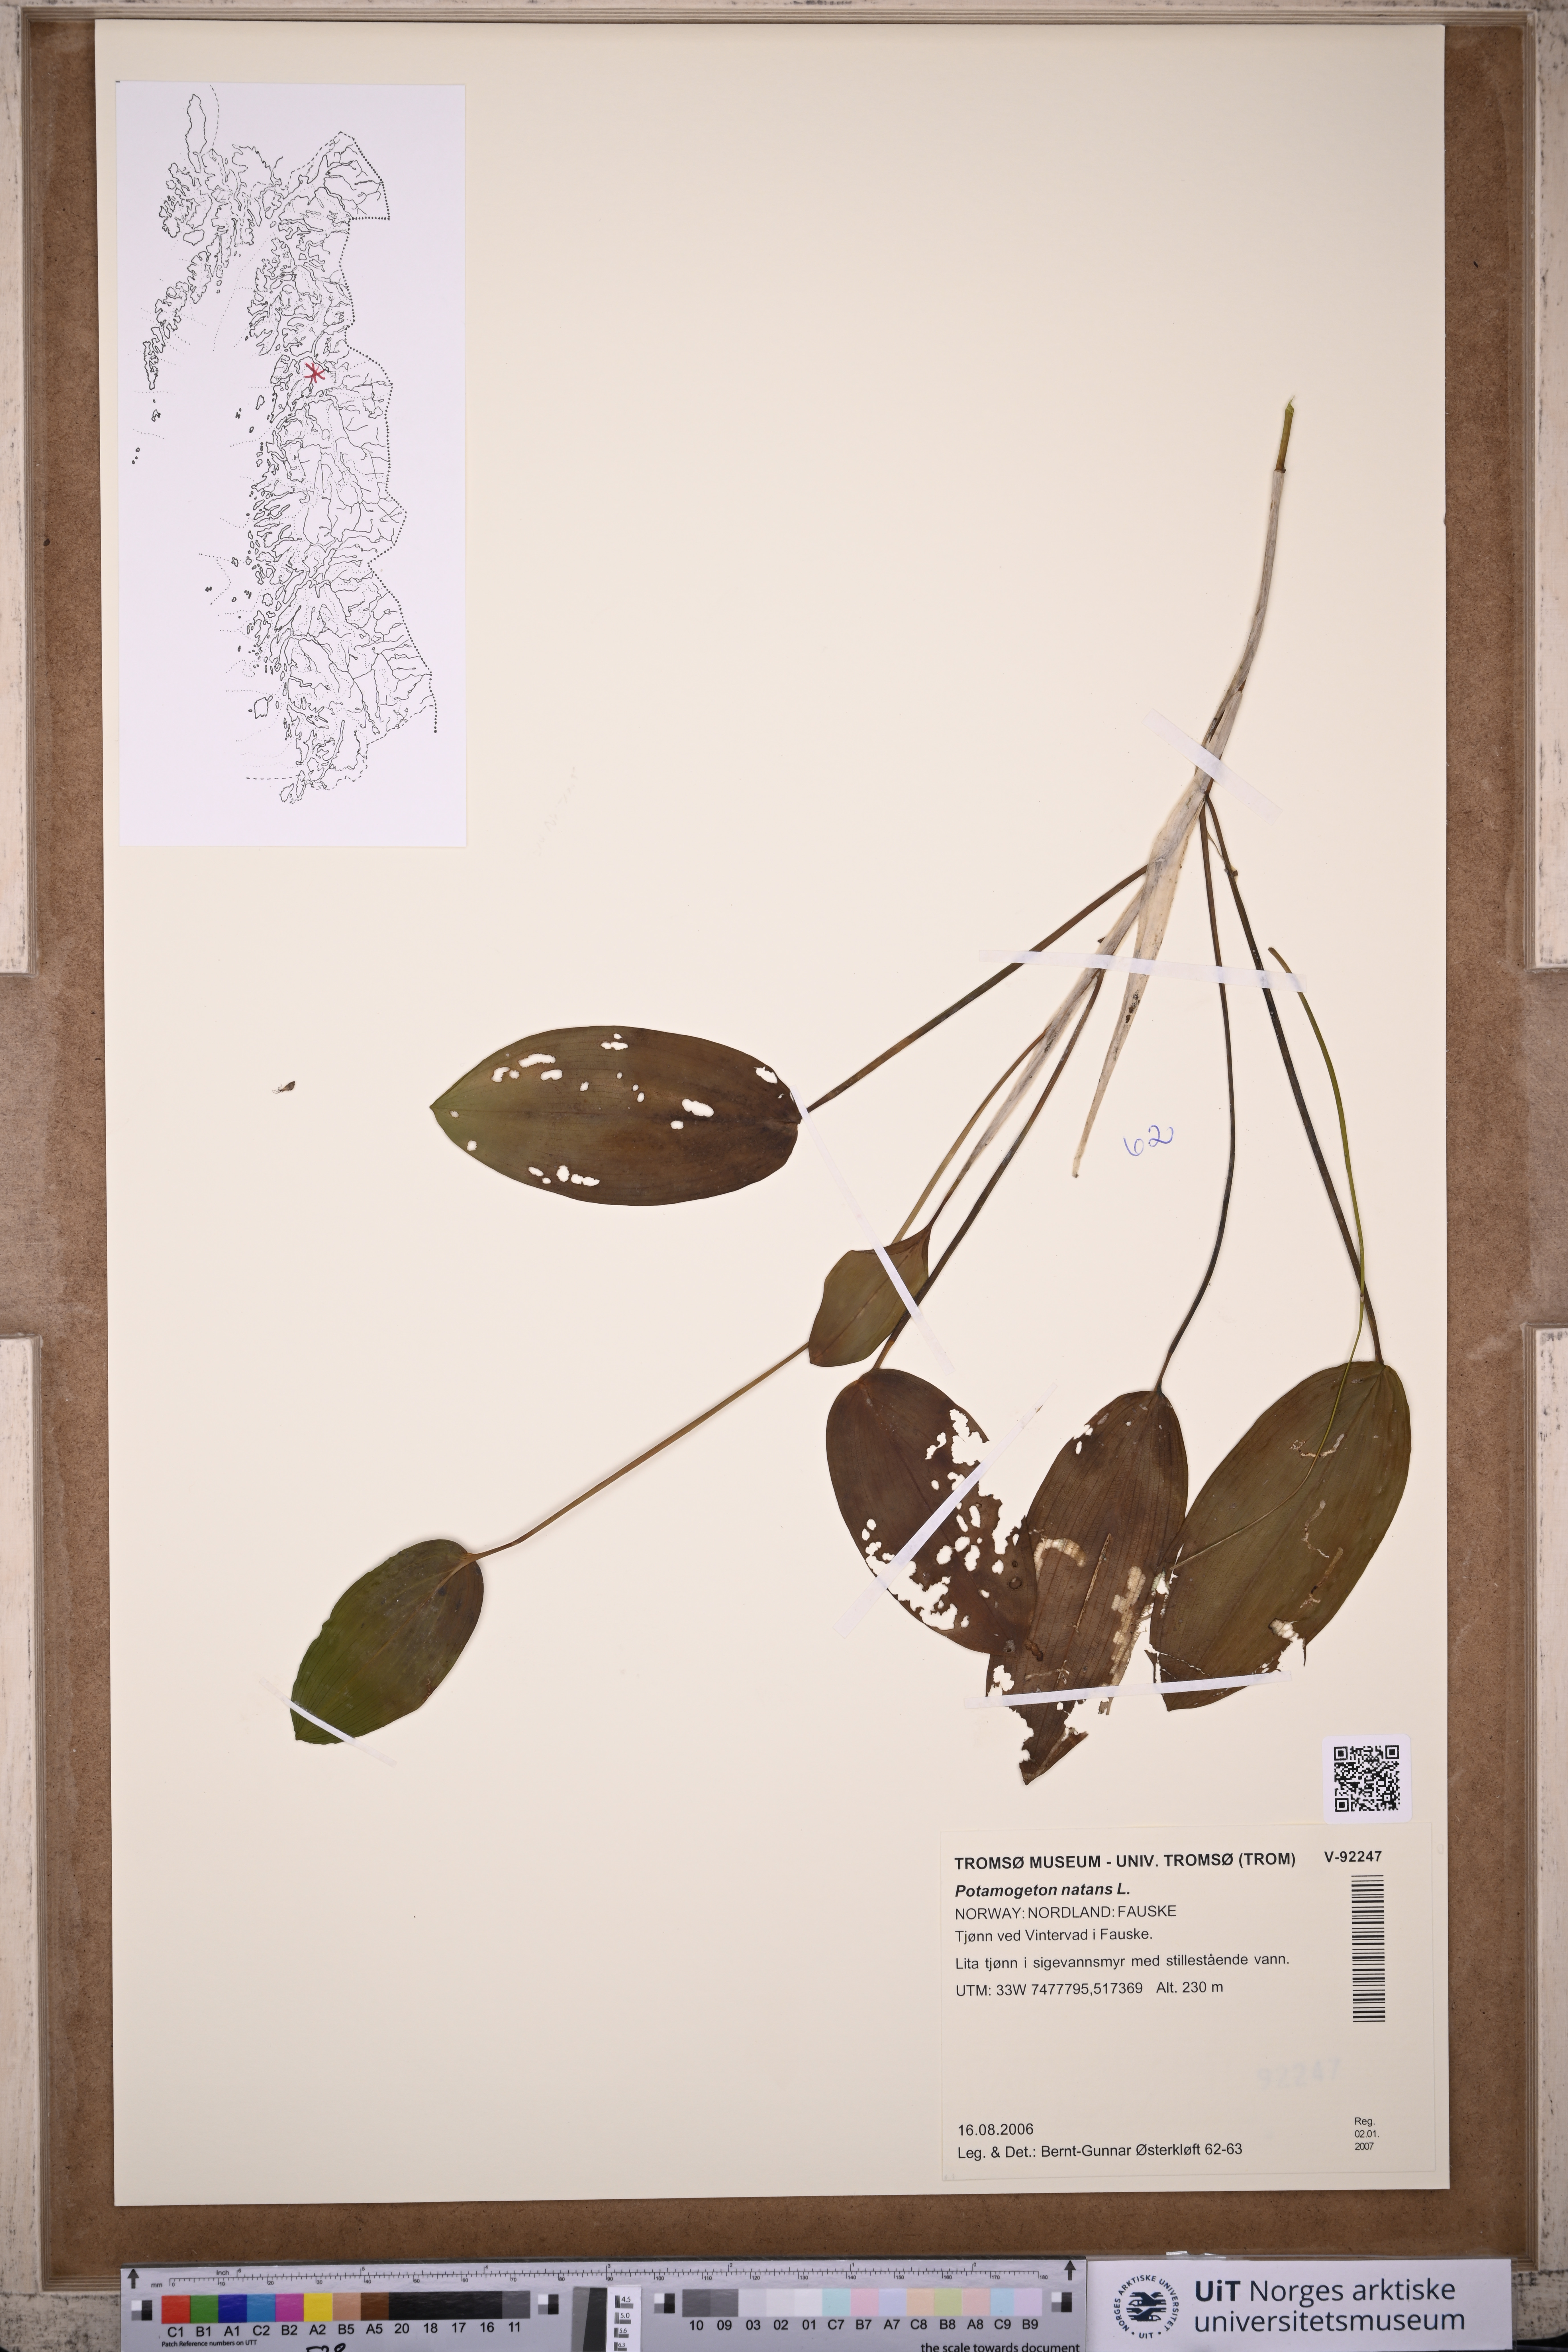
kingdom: Plantae
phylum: Tracheophyta
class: Liliopsida
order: Alismatales
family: Potamogetonaceae
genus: Potamogeton
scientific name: Potamogeton natans
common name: Broad-leaved pondweed
